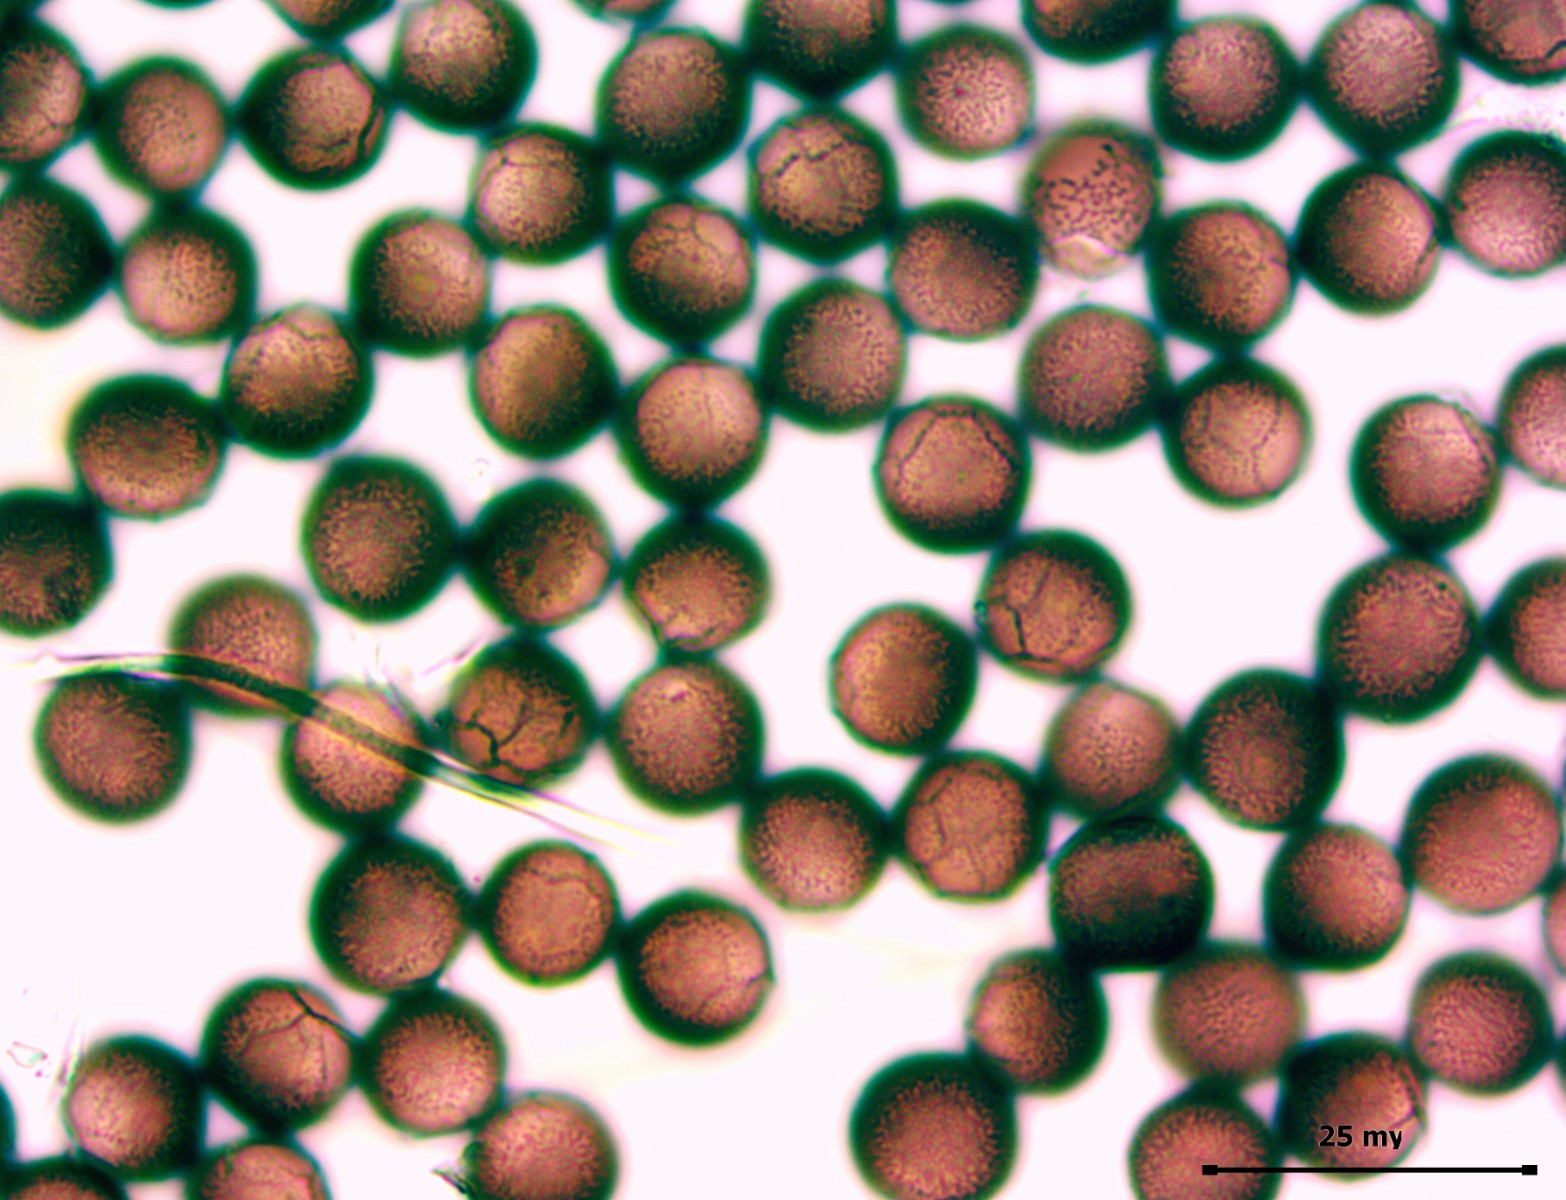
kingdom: Protozoa
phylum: Mycetozoa
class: Myxomycetes
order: Physarales
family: Didymiaceae
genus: Didymium
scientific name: Didymium difforme
